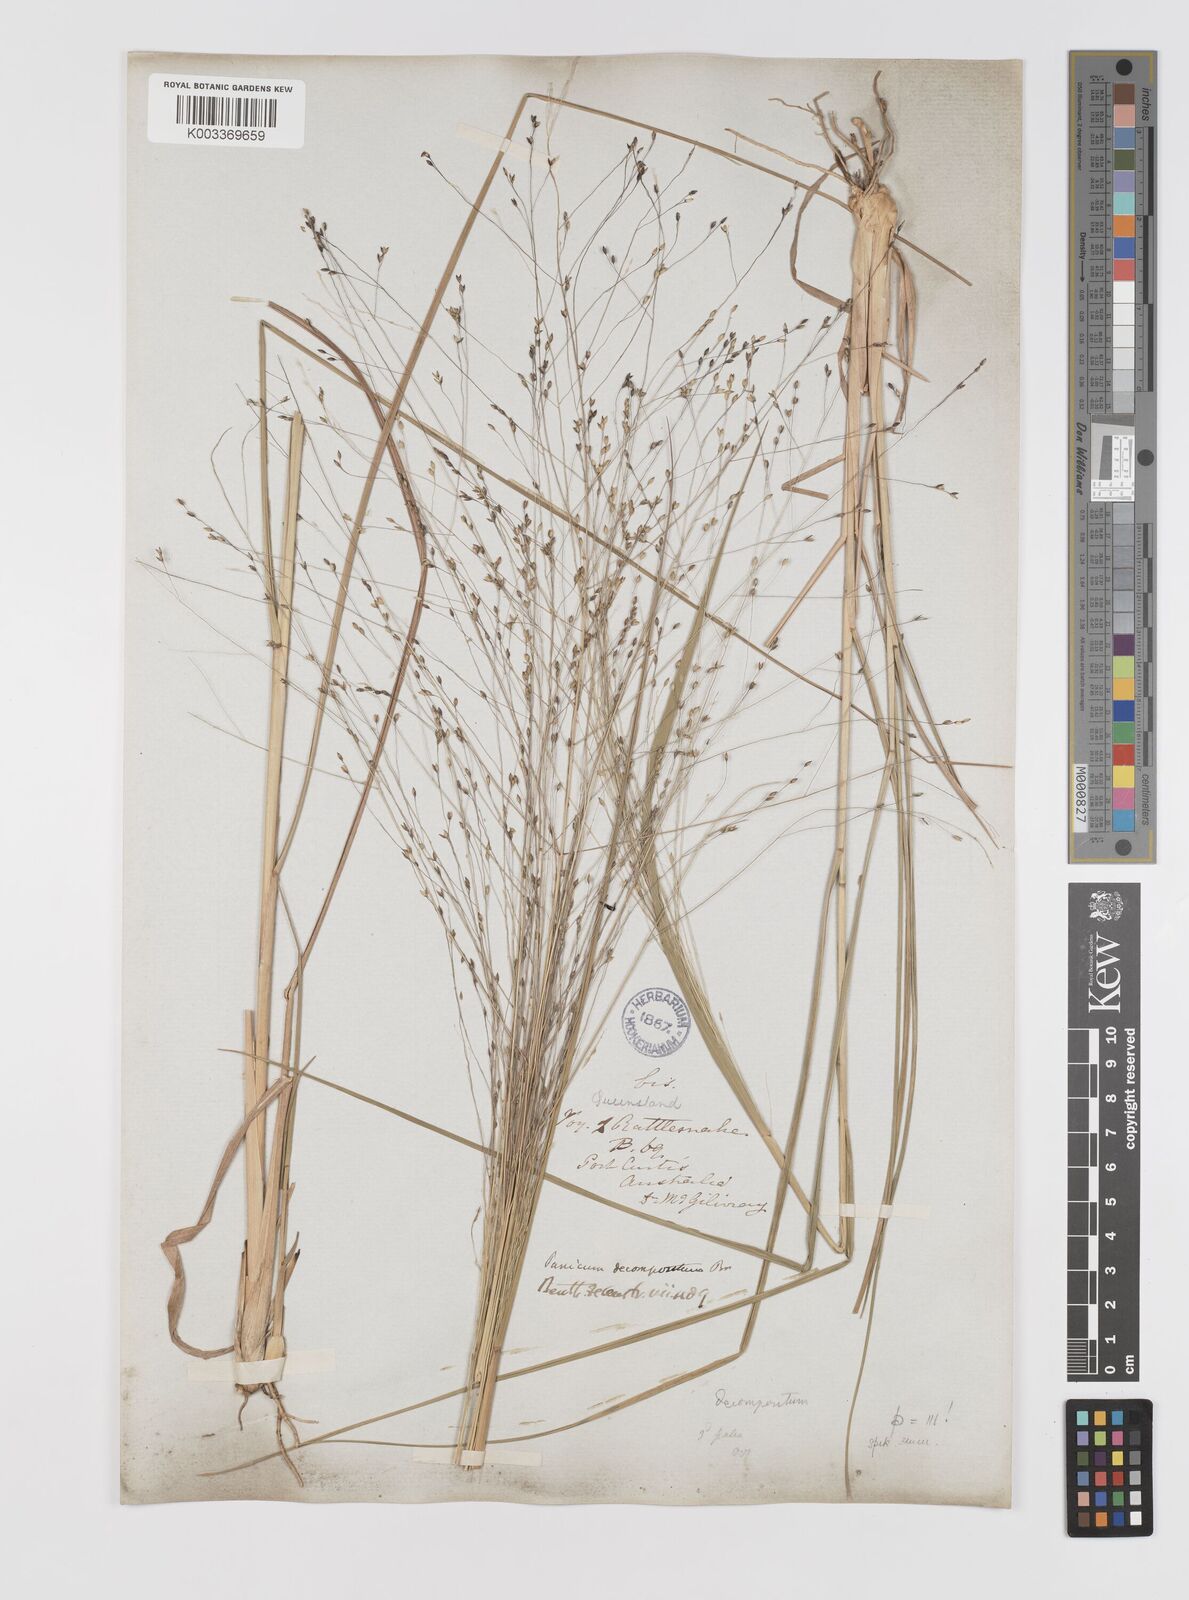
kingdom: Plantae
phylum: Tracheophyta
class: Liliopsida
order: Poales
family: Poaceae
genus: Panicum
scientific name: Panicum decompositum
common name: Australian millet
